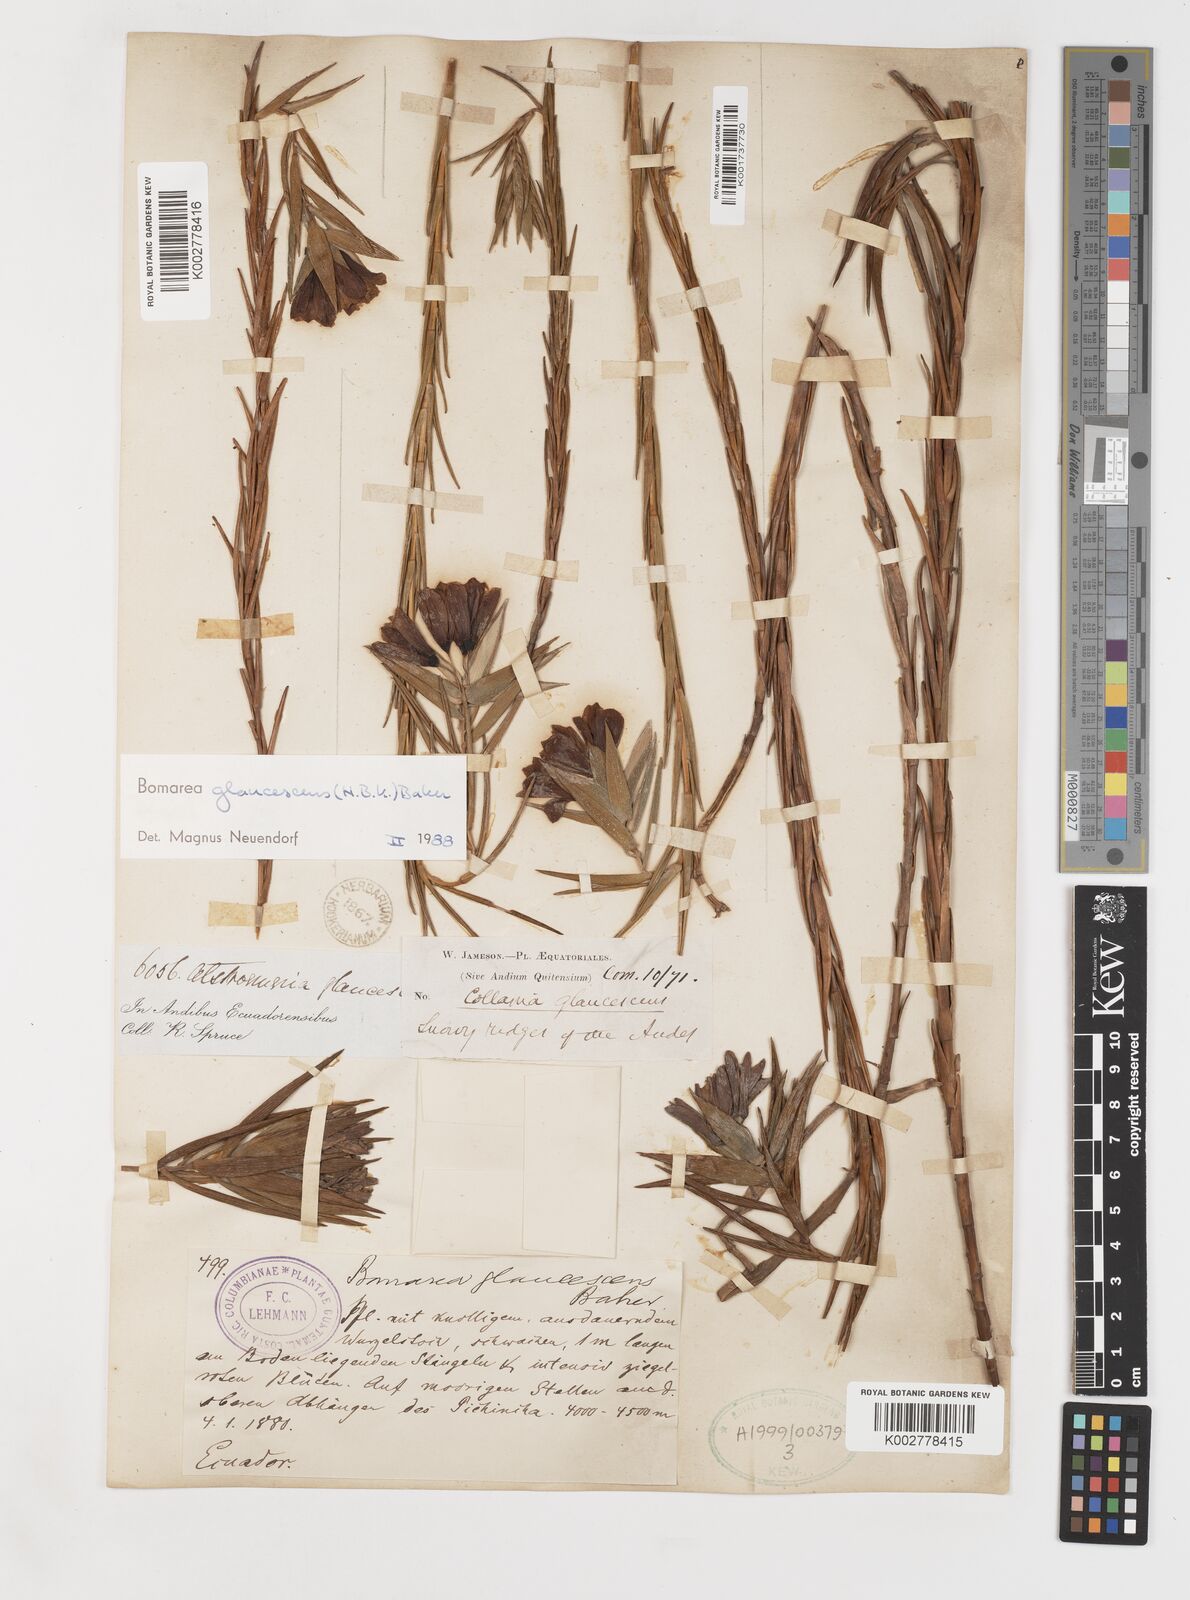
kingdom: Plantae
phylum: Tracheophyta
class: Liliopsida
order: Liliales
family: Alstroemeriaceae
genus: Bomarea
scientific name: Bomarea glaucescens
